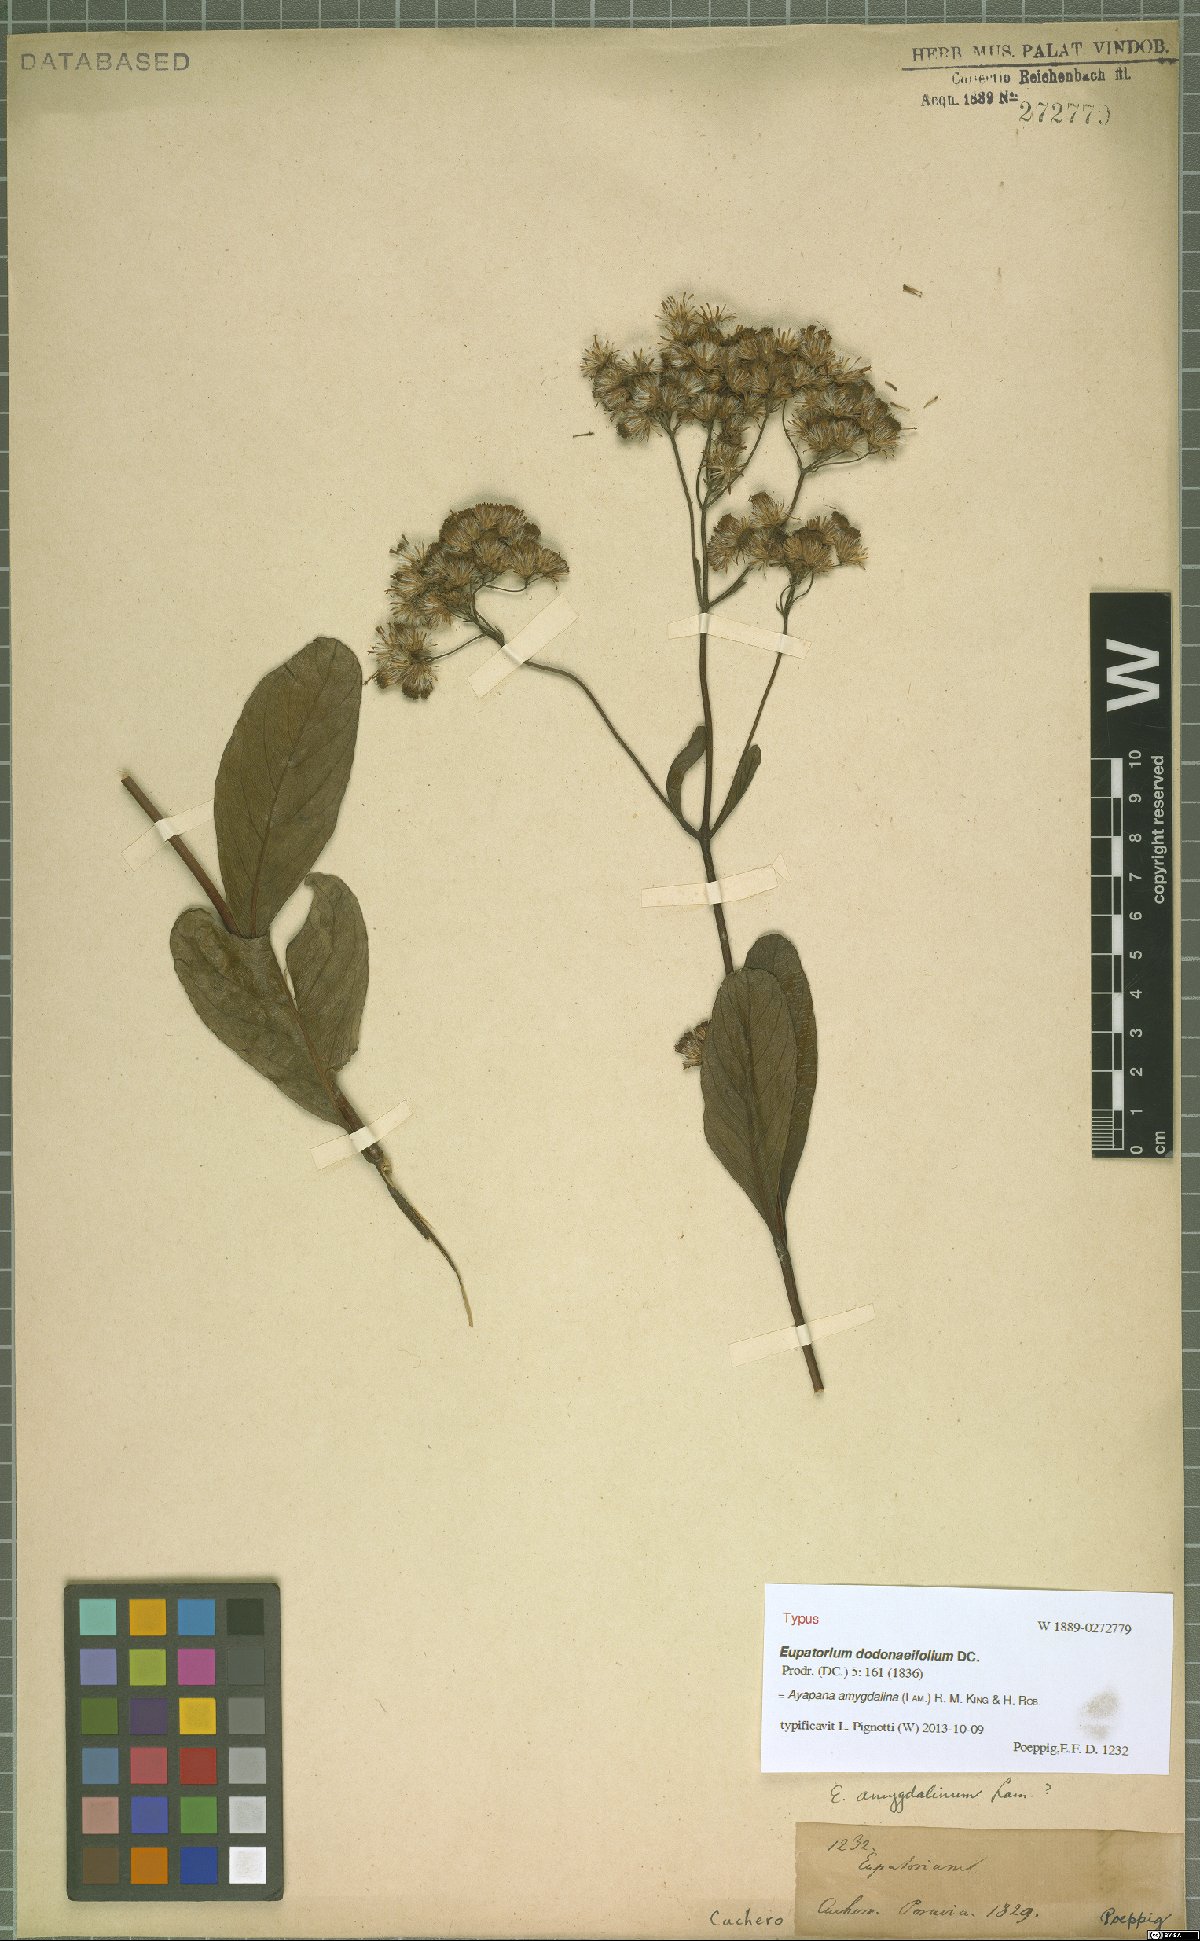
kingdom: Plantae
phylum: Tracheophyta
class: Magnoliopsida
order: Asterales
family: Asteraceae
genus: Ayapana
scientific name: Ayapana amygdalina
